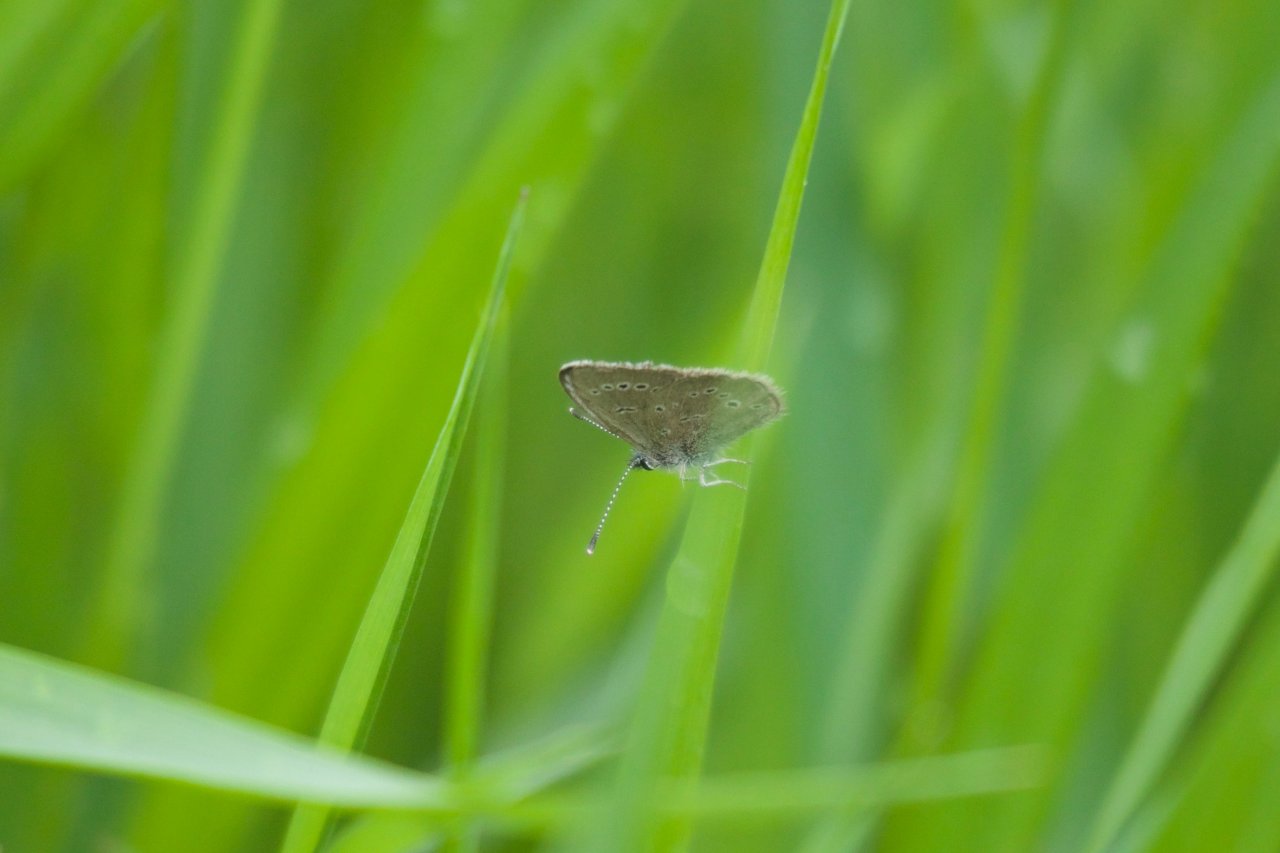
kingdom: Animalia
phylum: Arthropoda
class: Insecta
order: Lepidoptera
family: Lycaenidae
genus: Glaucopsyche
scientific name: Glaucopsyche lygdamus
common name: Silvery Blue
